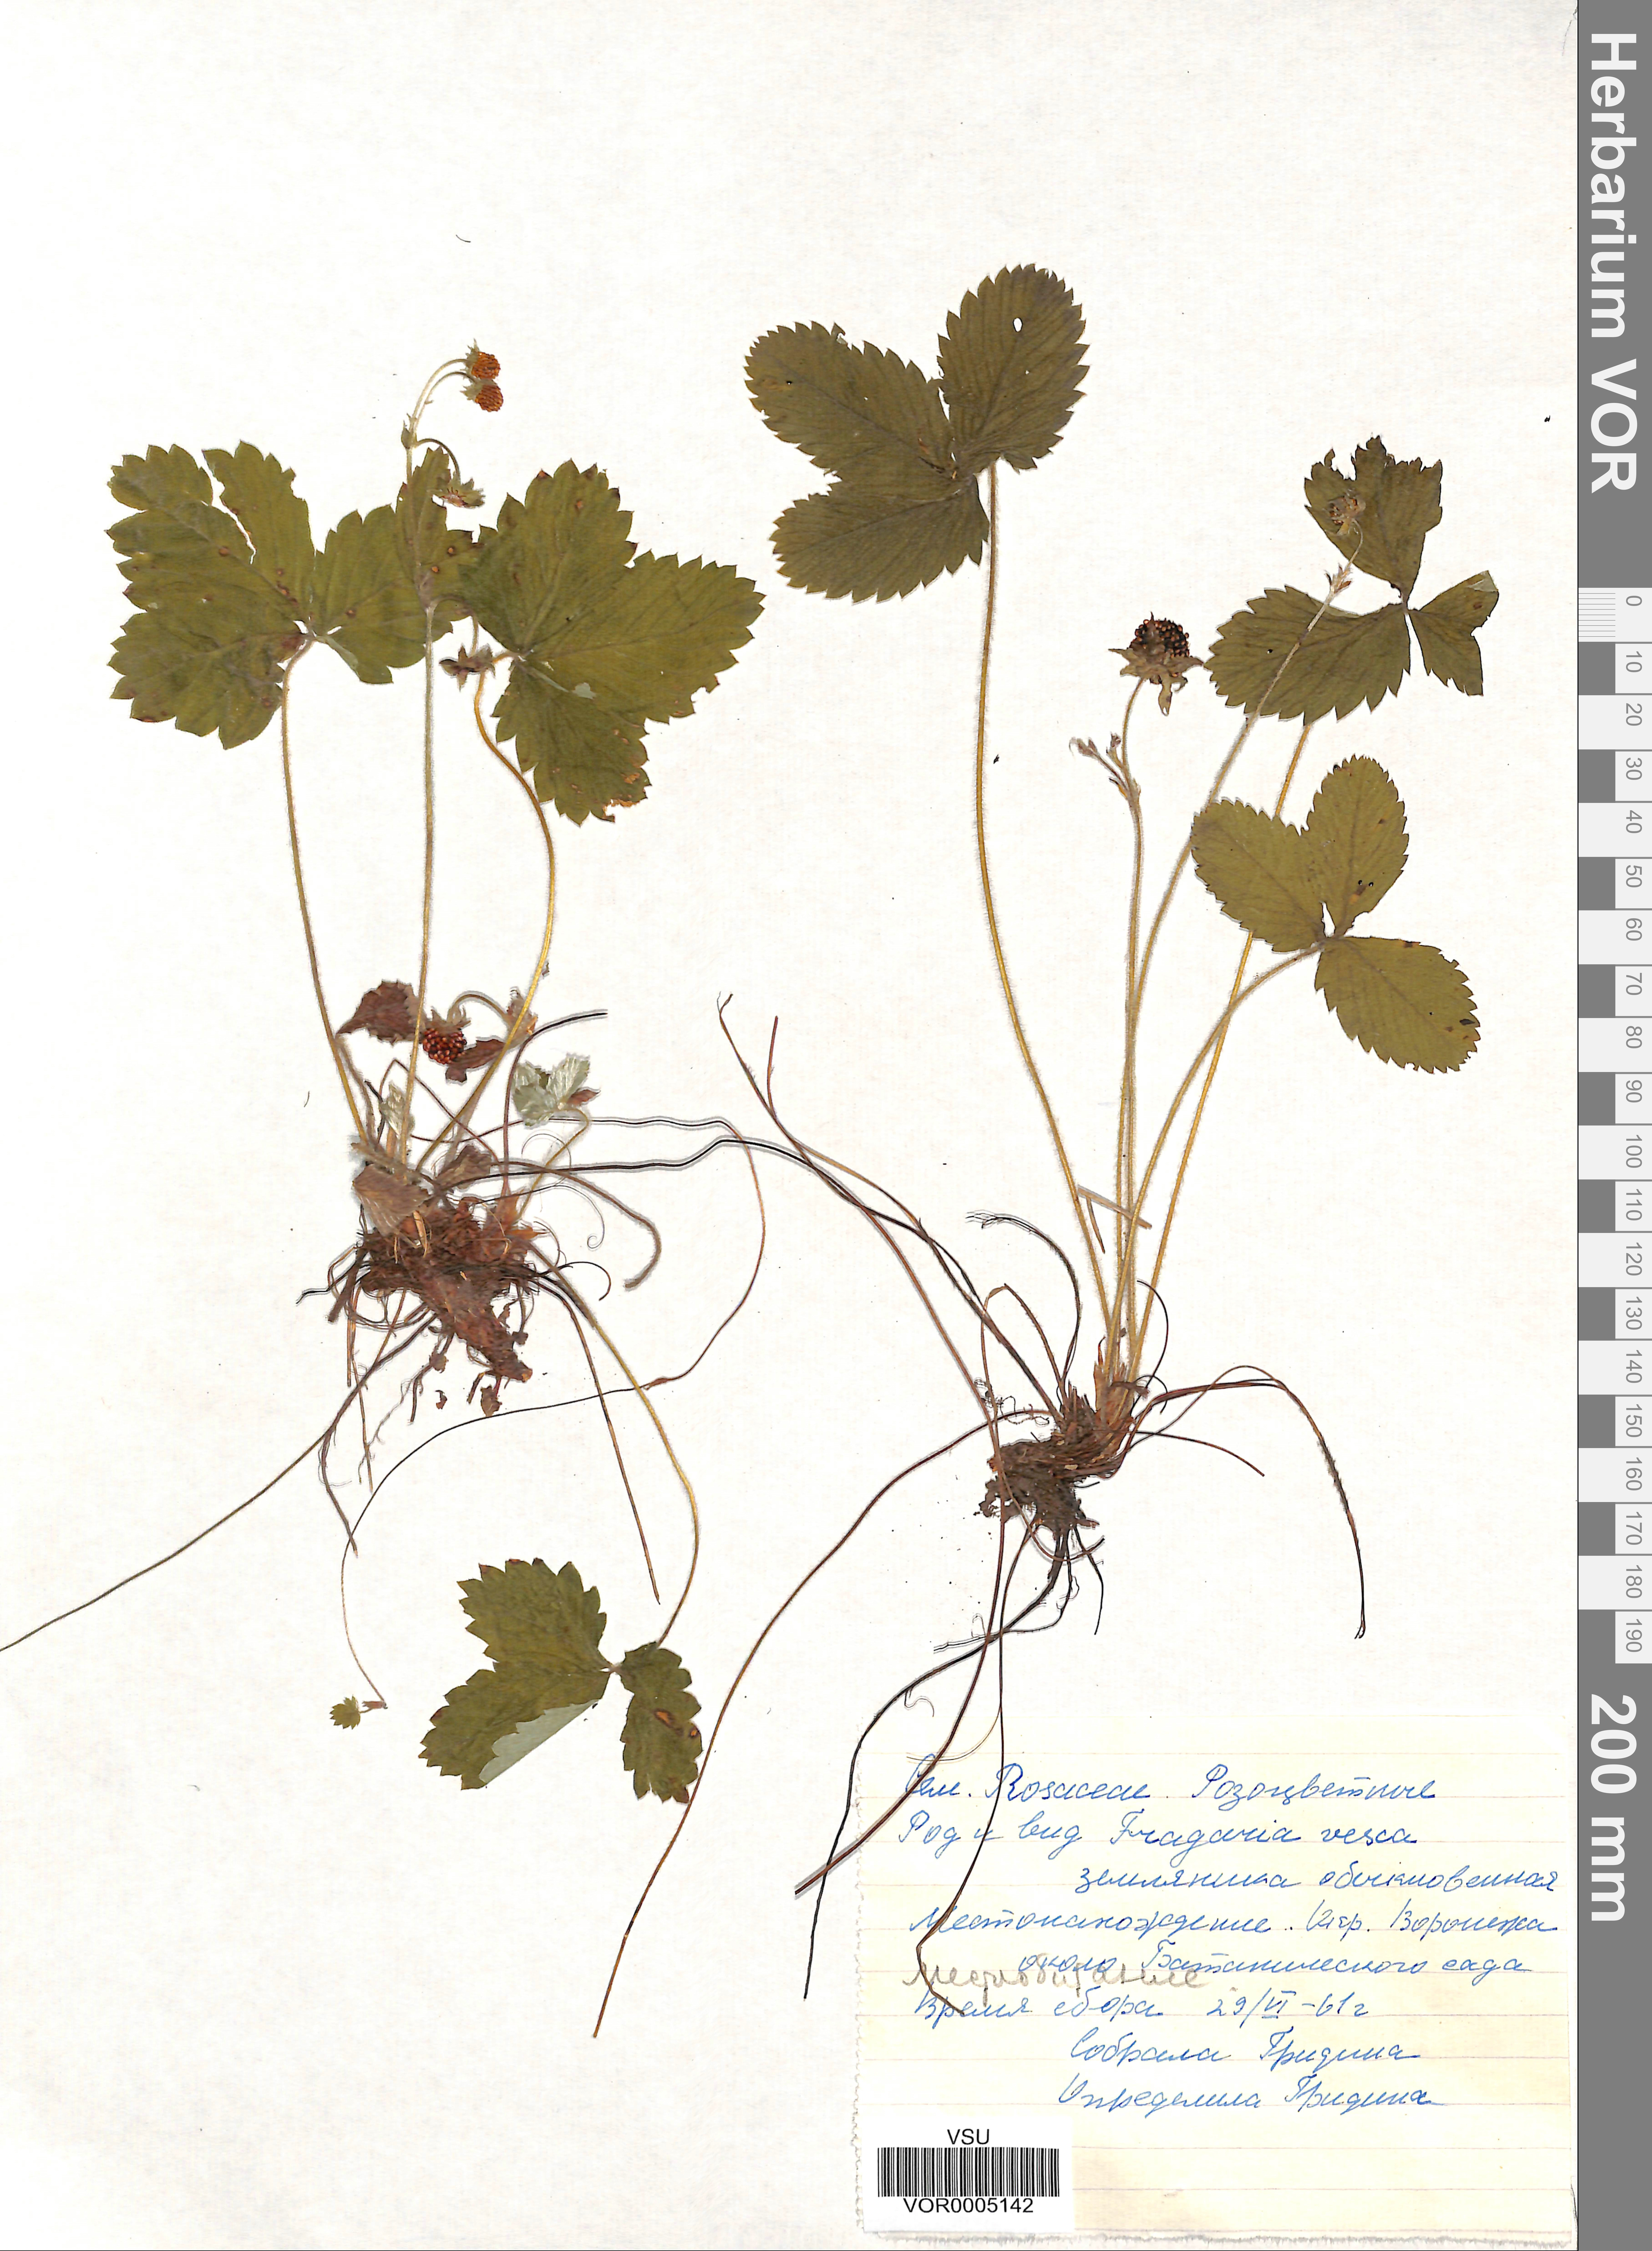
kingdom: Plantae
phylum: Tracheophyta
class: Magnoliopsida
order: Rosales
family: Rosaceae
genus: Fragaria
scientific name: Fragaria vesca
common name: Wild strawberry
